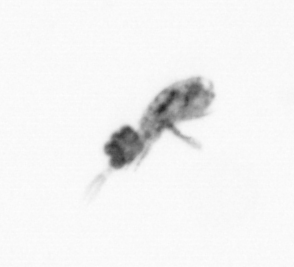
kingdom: Animalia
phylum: Arthropoda
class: Copepoda
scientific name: Copepoda
